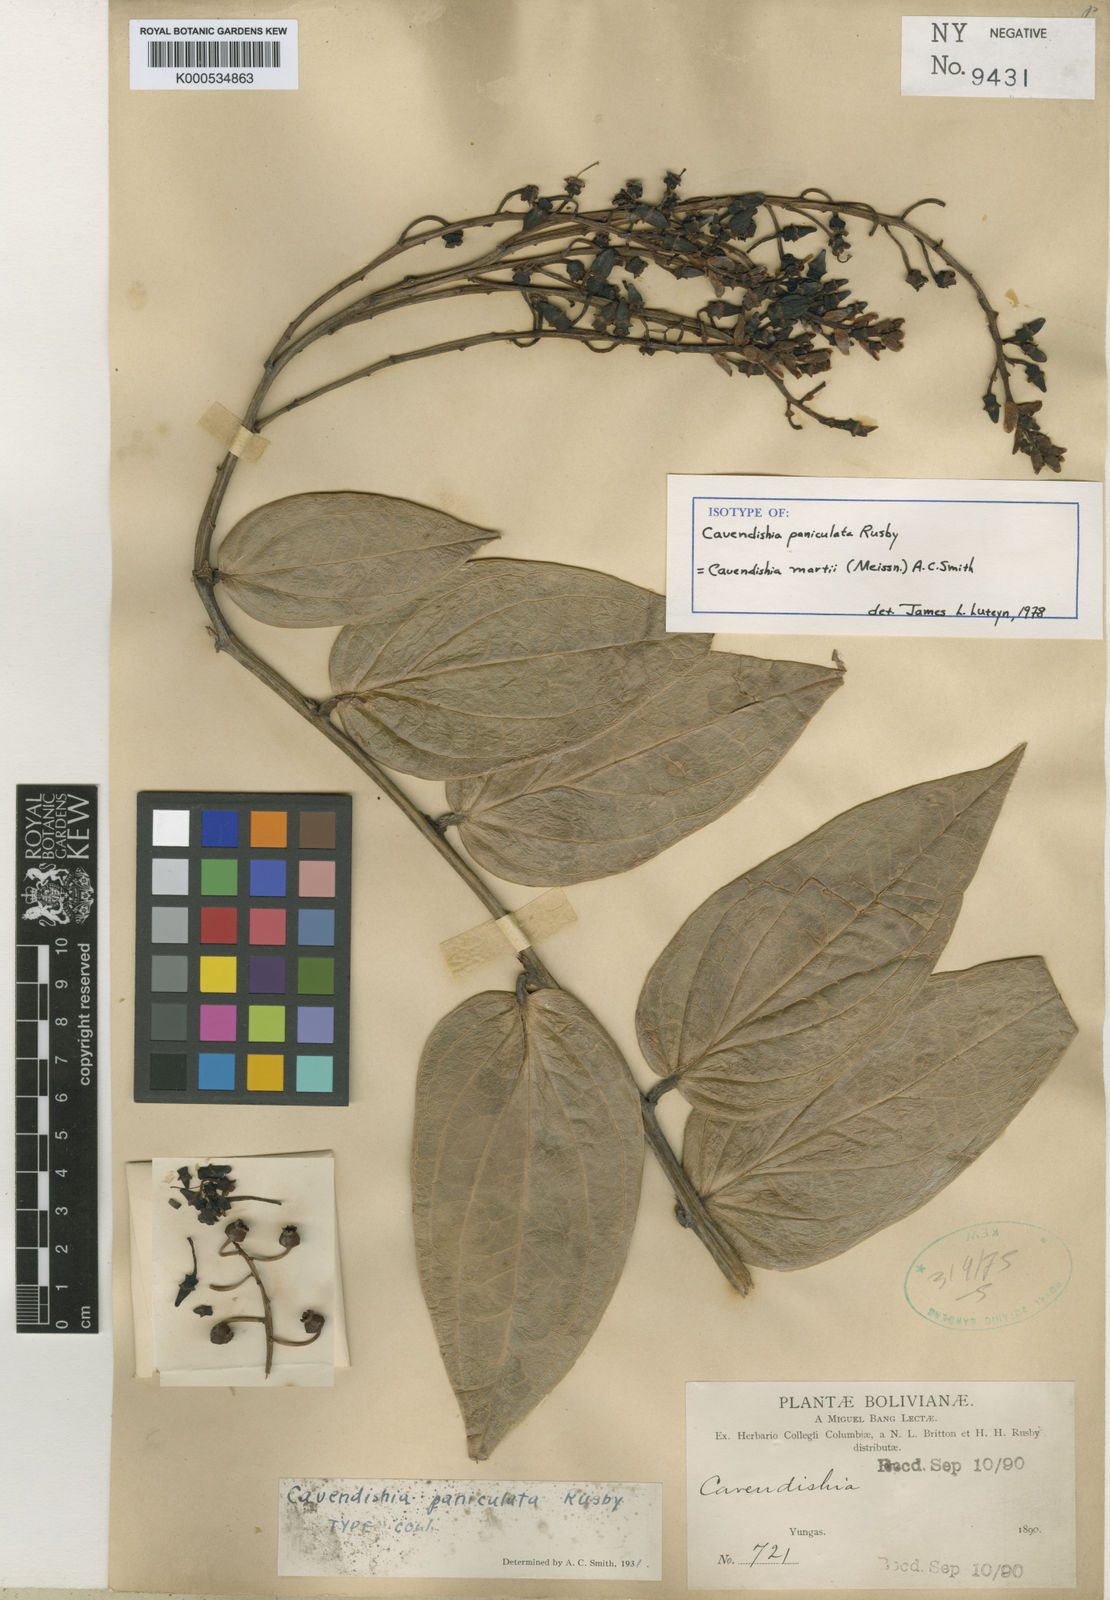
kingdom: Plantae
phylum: Tracheophyta
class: Magnoliopsida
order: Ericales
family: Ericaceae
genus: Cavendishia
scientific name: Cavendishia martii
